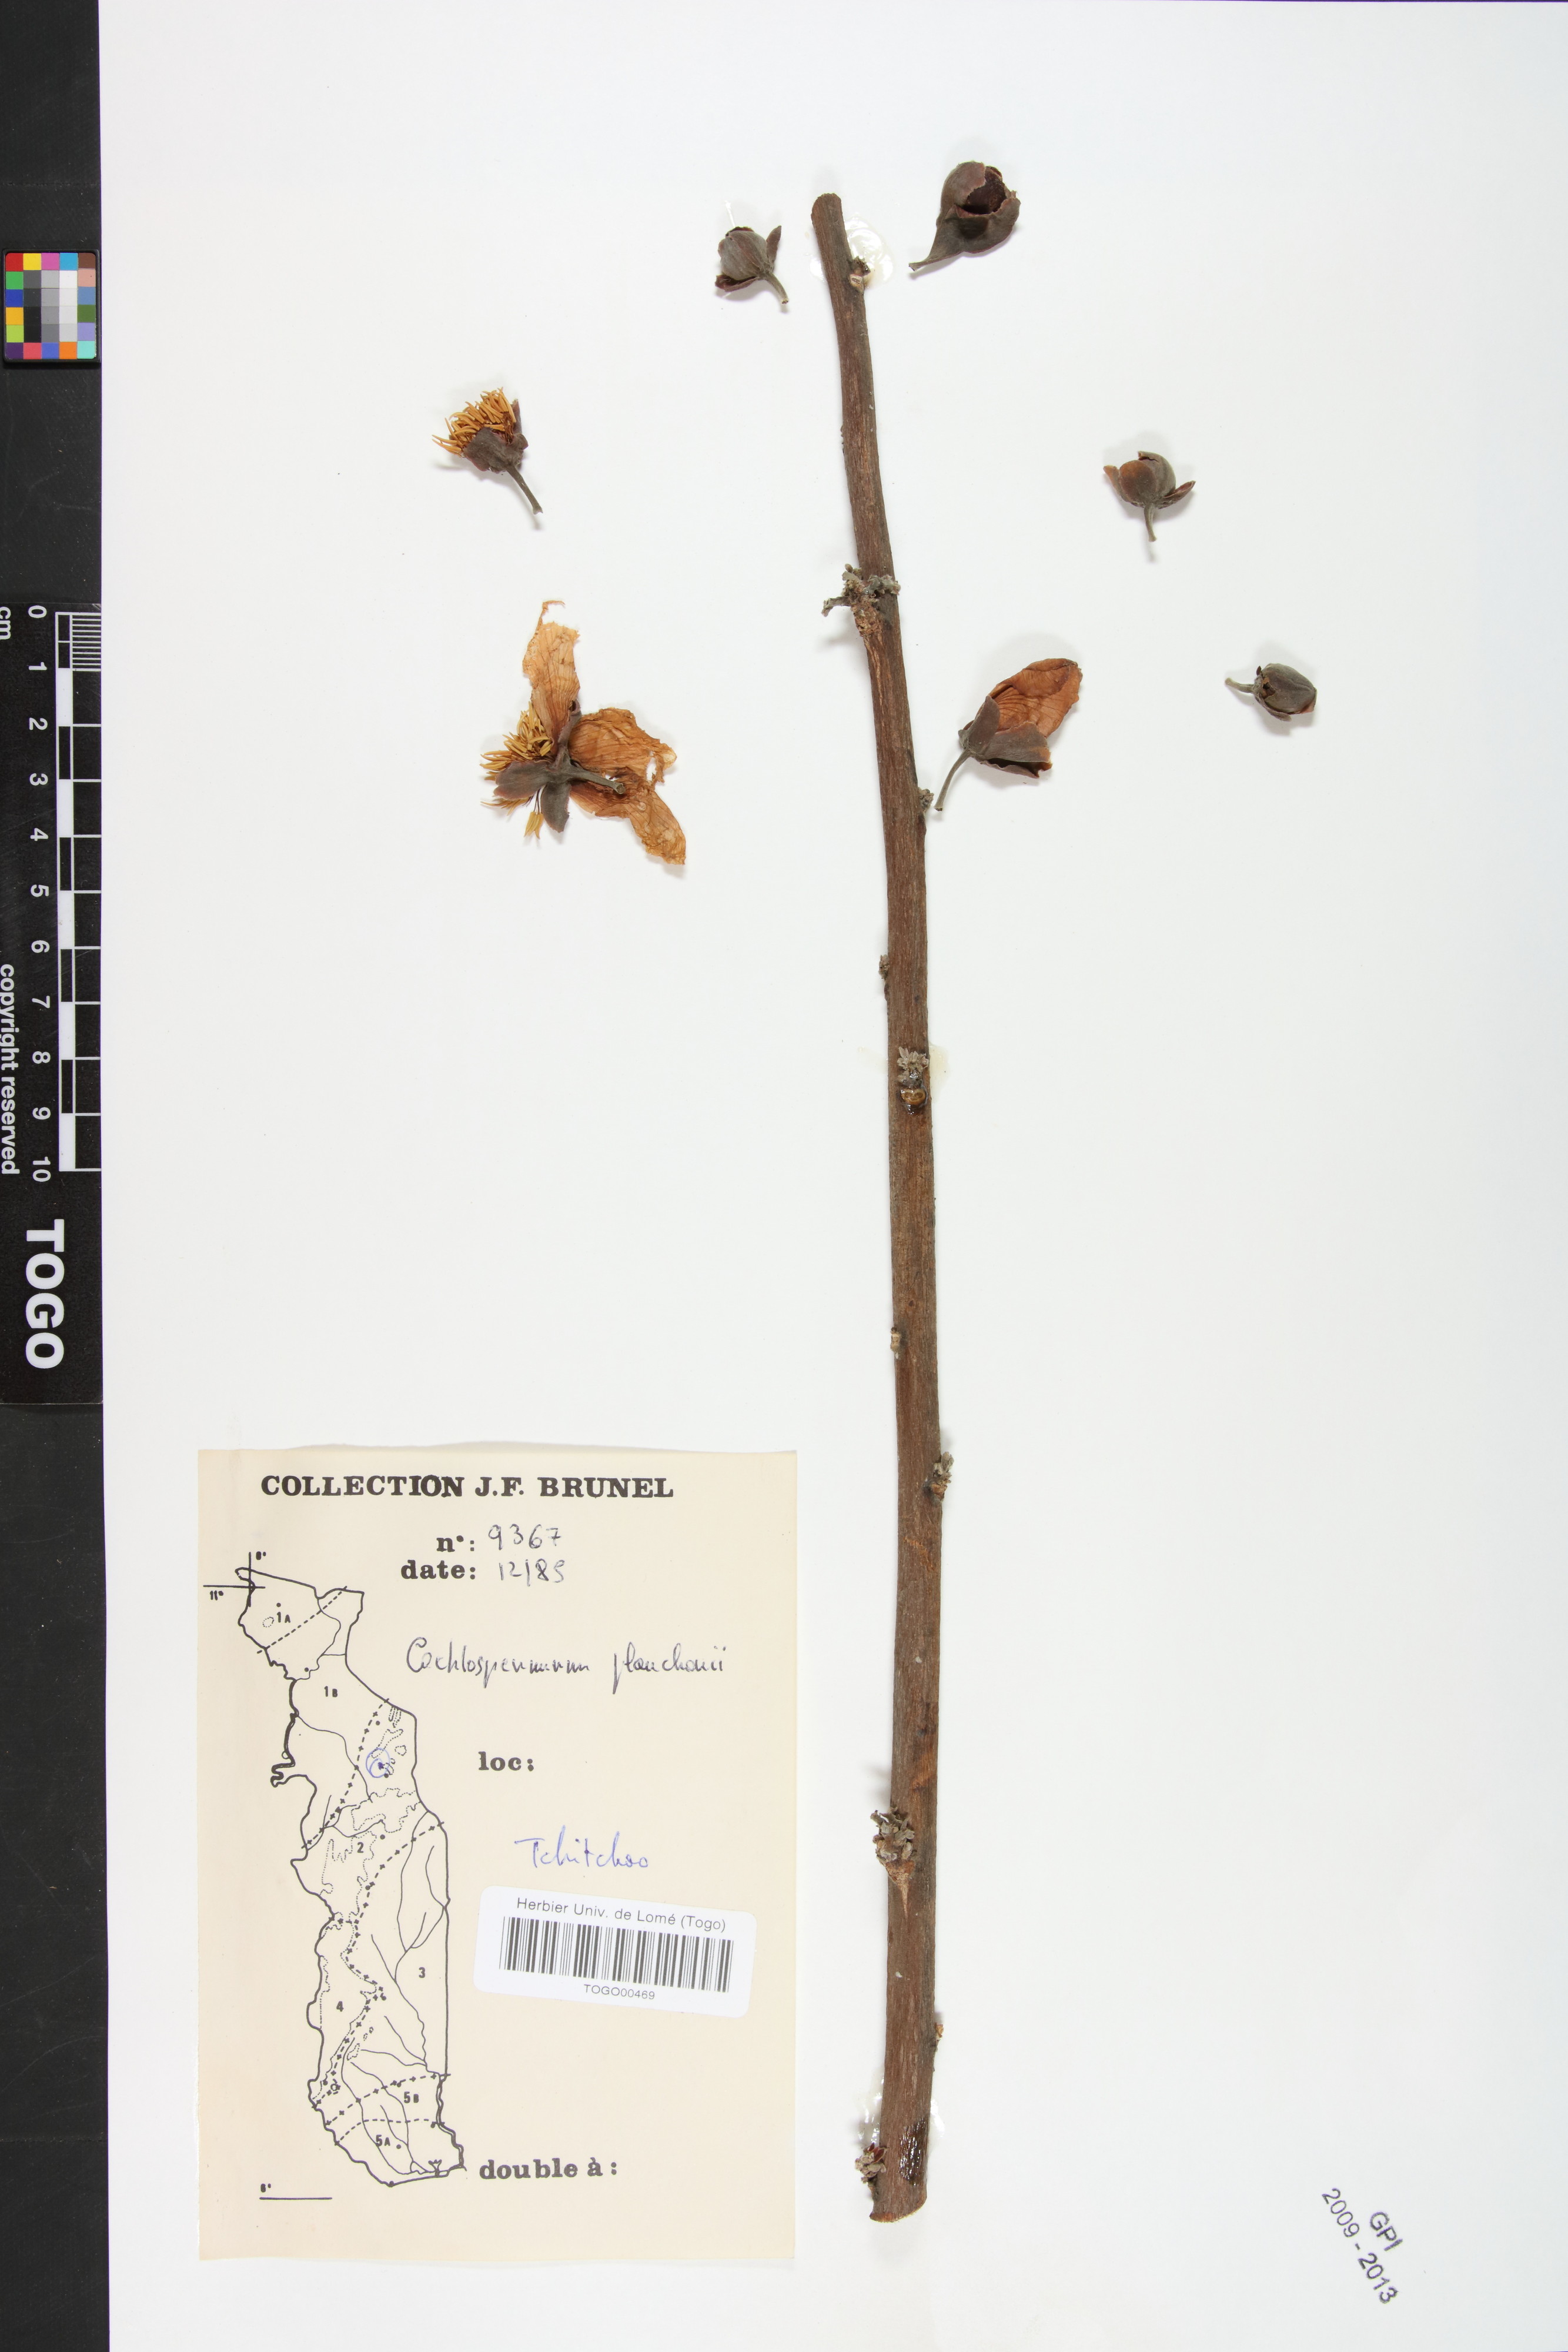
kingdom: Plantae
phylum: Tracheophyta
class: Magnoliopsida
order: Malvales
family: Cochlospermaceae
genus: Cochlospermum
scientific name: Cochlospermum planchonii
